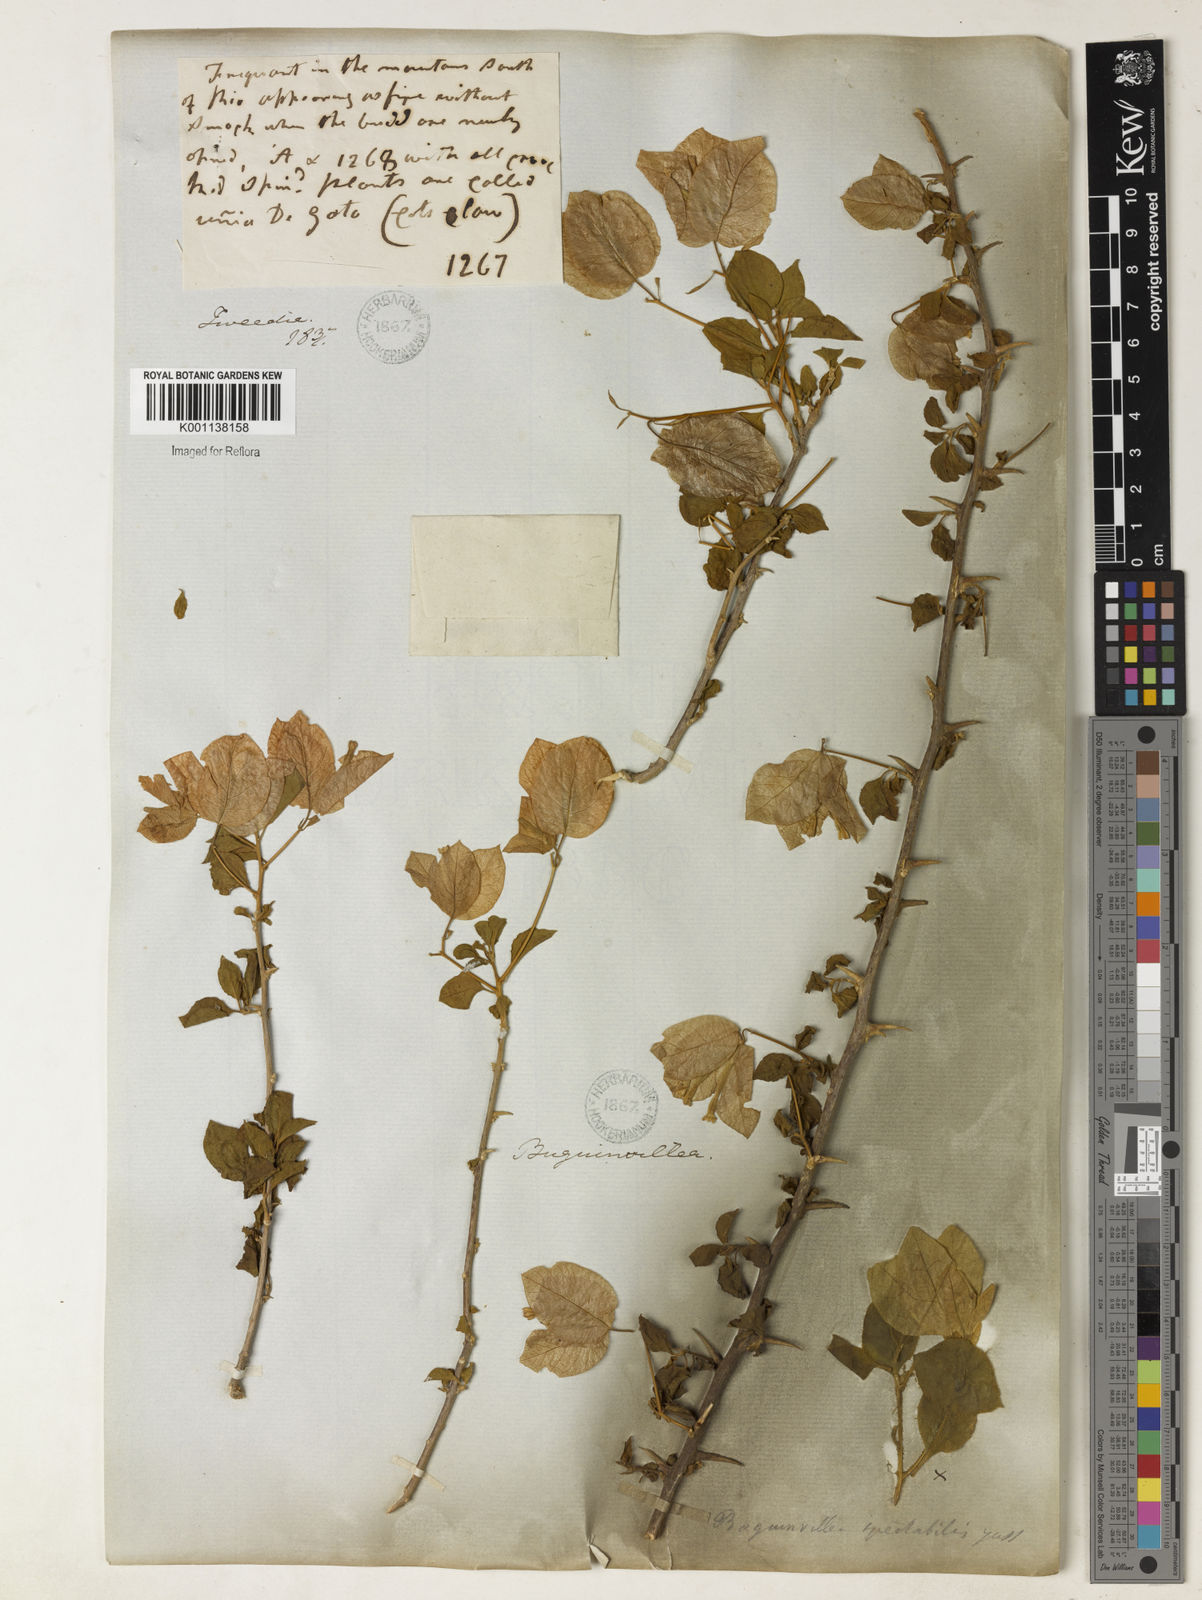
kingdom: Plantae
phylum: Tracheophyta
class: Magnoliopsida
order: Caryophyllales
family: Nyctaginaceae
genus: Bougainvillea
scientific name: Bougainvillea spectabilis
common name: Great bougainvillea
